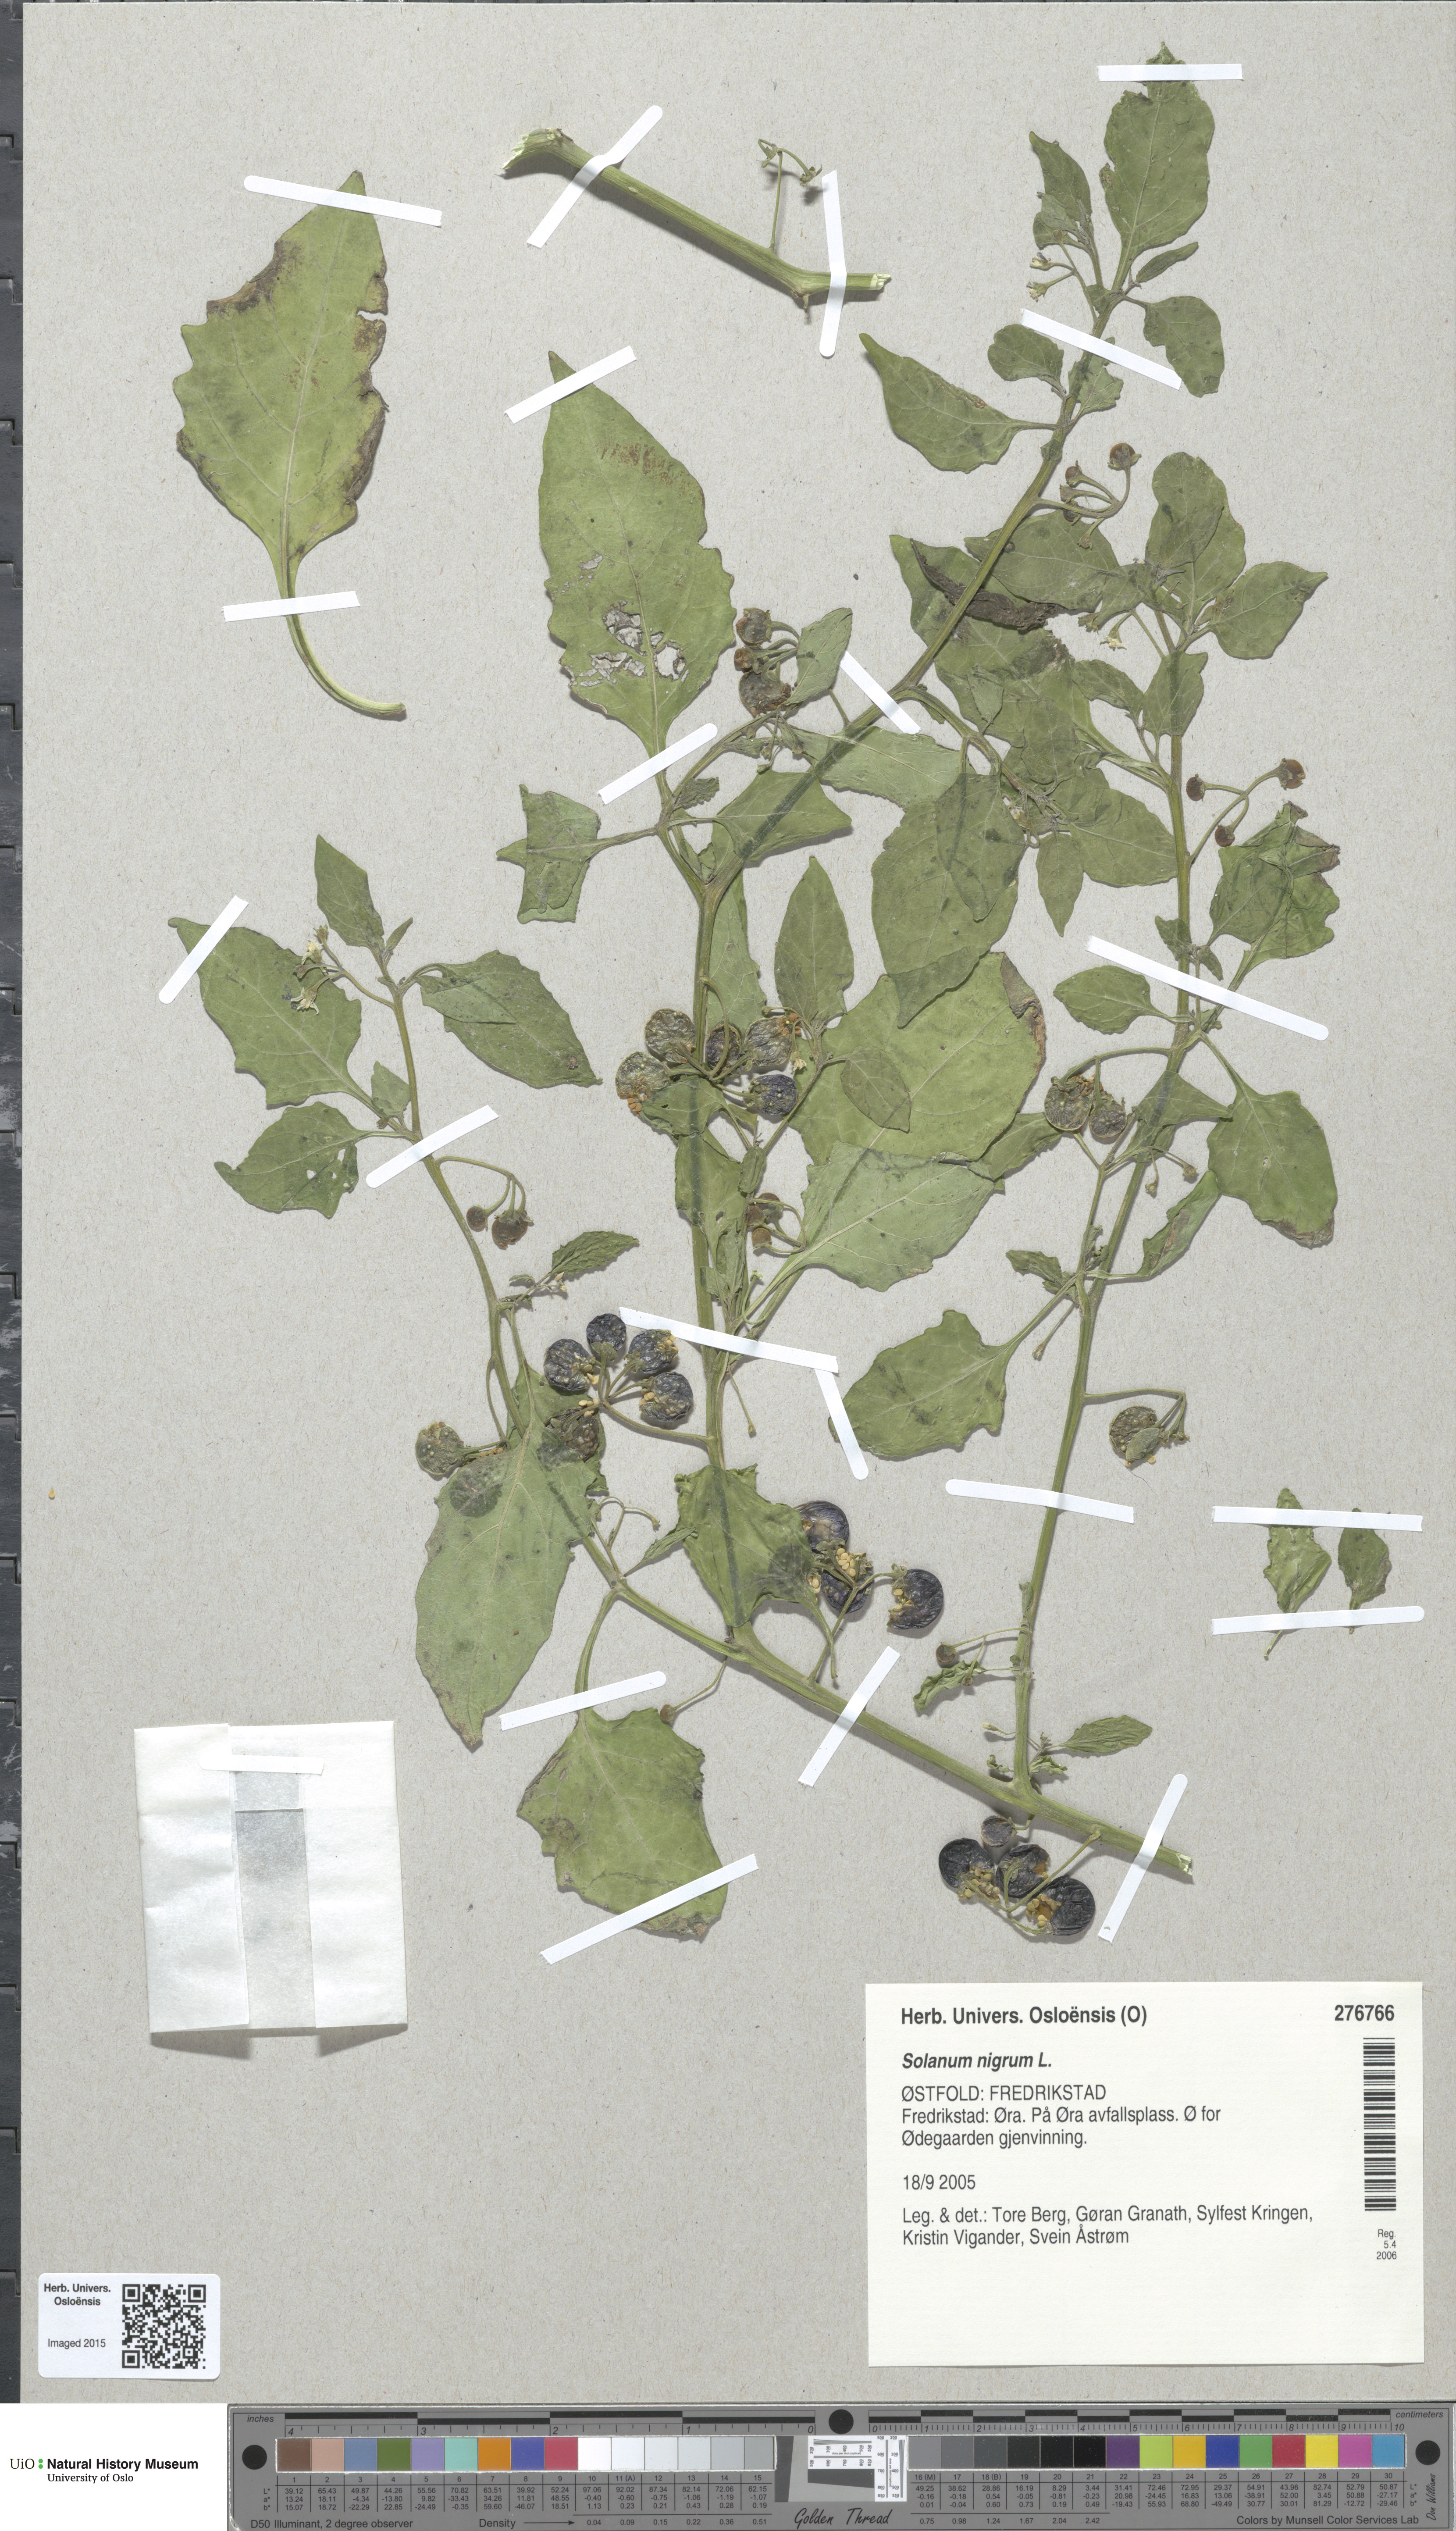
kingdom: Plantae
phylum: Tracheophyta
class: Magnoliopsida
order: Solanales
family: Solanaceae
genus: Solanum
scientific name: Solanum nigrum
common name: Black nightshade
